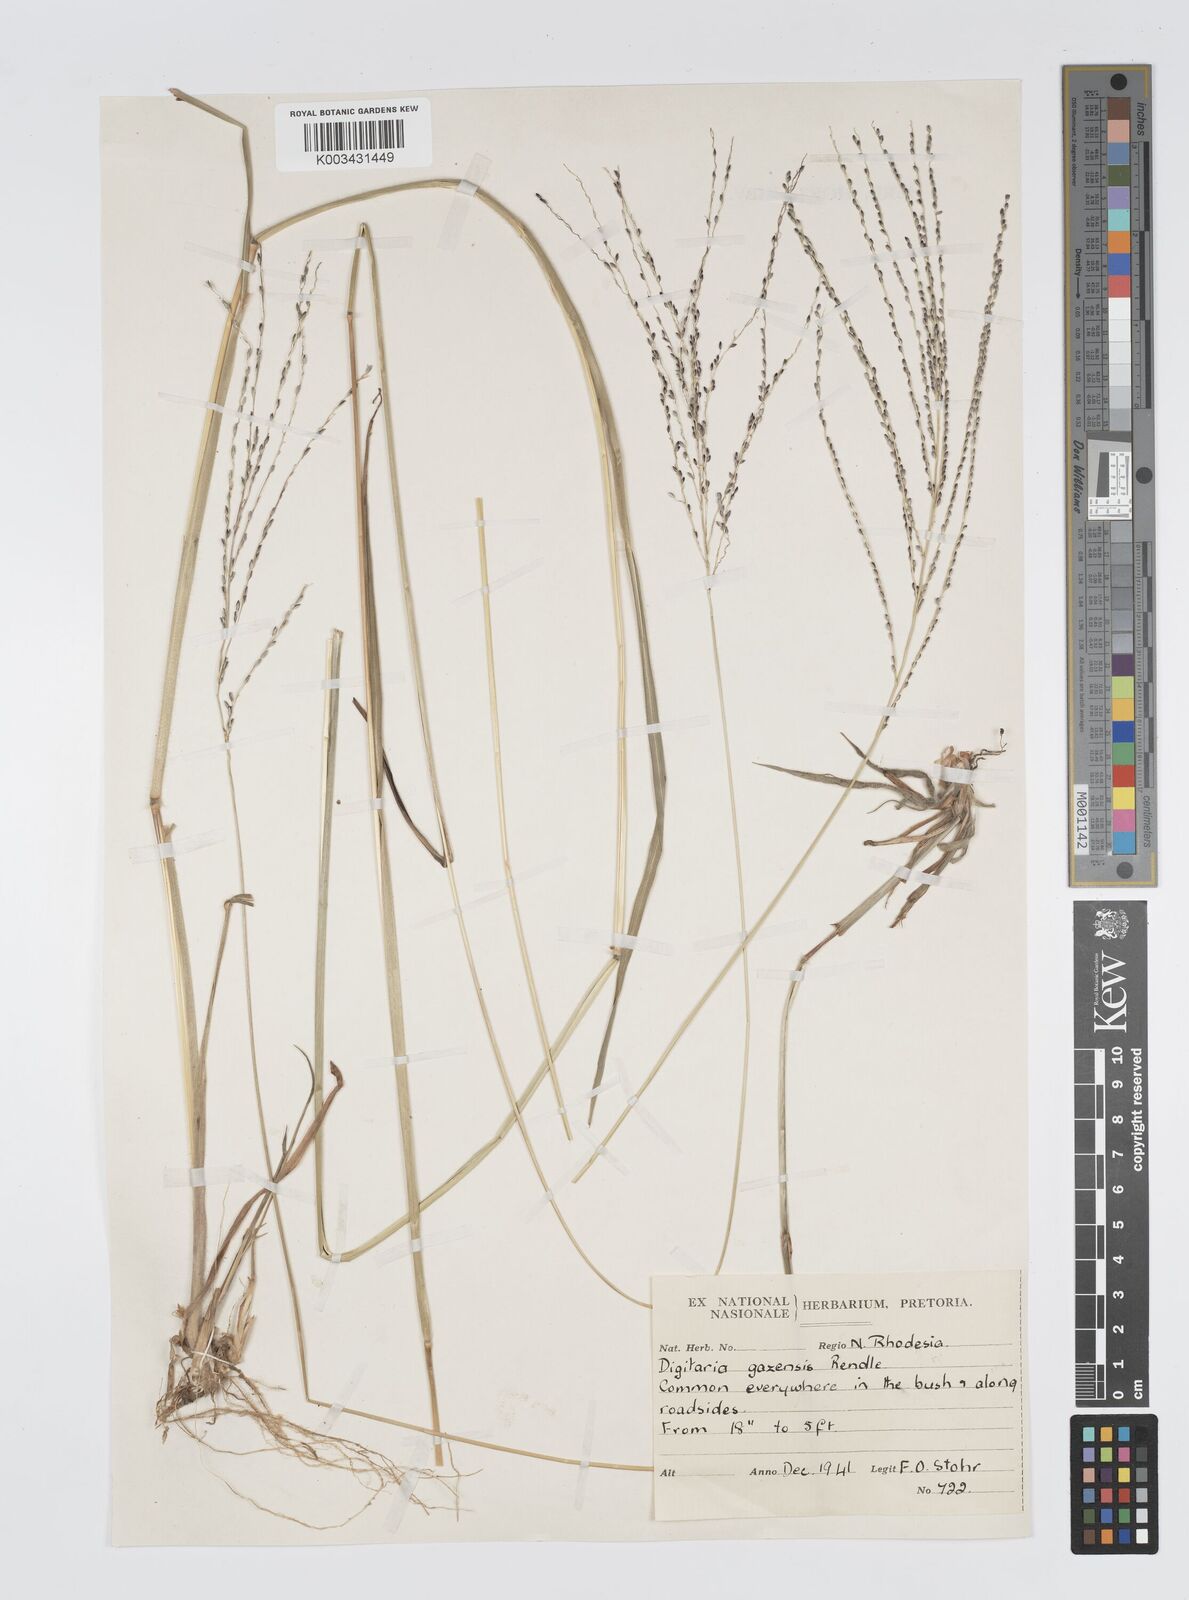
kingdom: Plantae
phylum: Tracheophyta
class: Liliopsida
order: Poales
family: Poaceae
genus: Digitaria
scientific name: Digitaria gazensis
